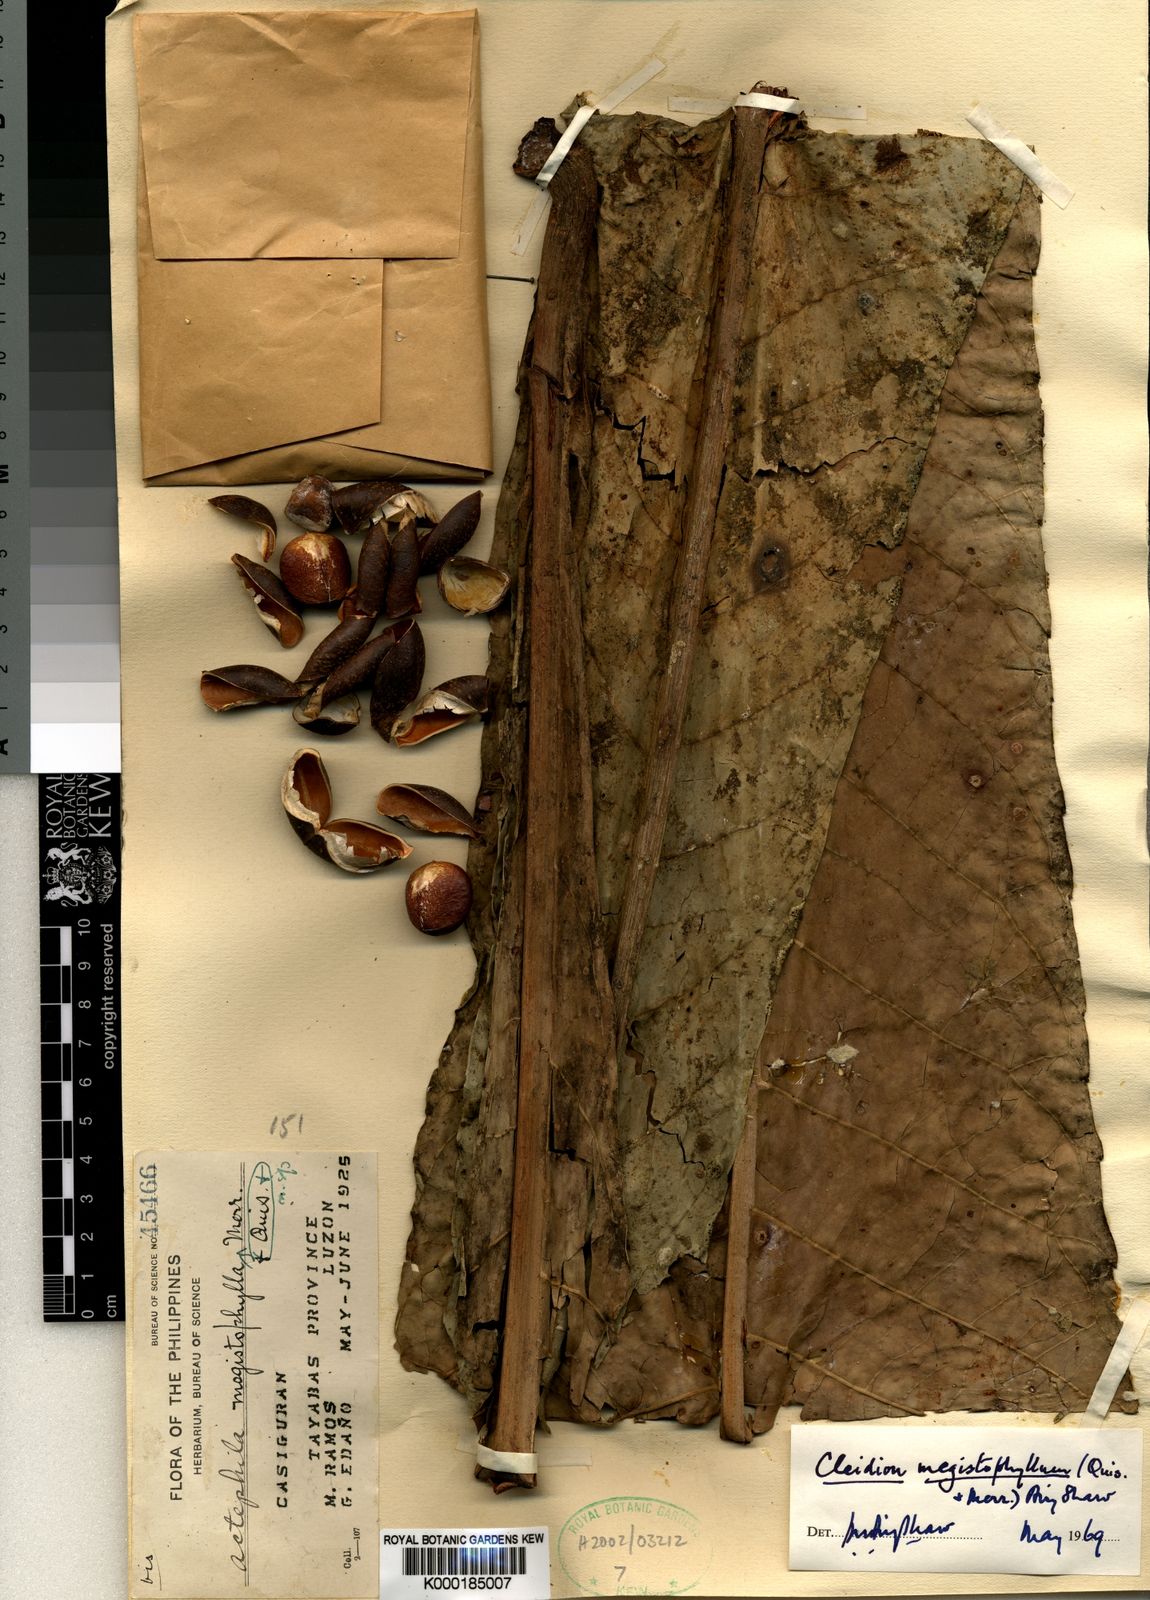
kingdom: Plantae
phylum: Tracheophyta
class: Magnoliopsida
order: Malpighiales
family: Euphorbiaceae
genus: Cleidion
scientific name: Cleidion megistophyllum
